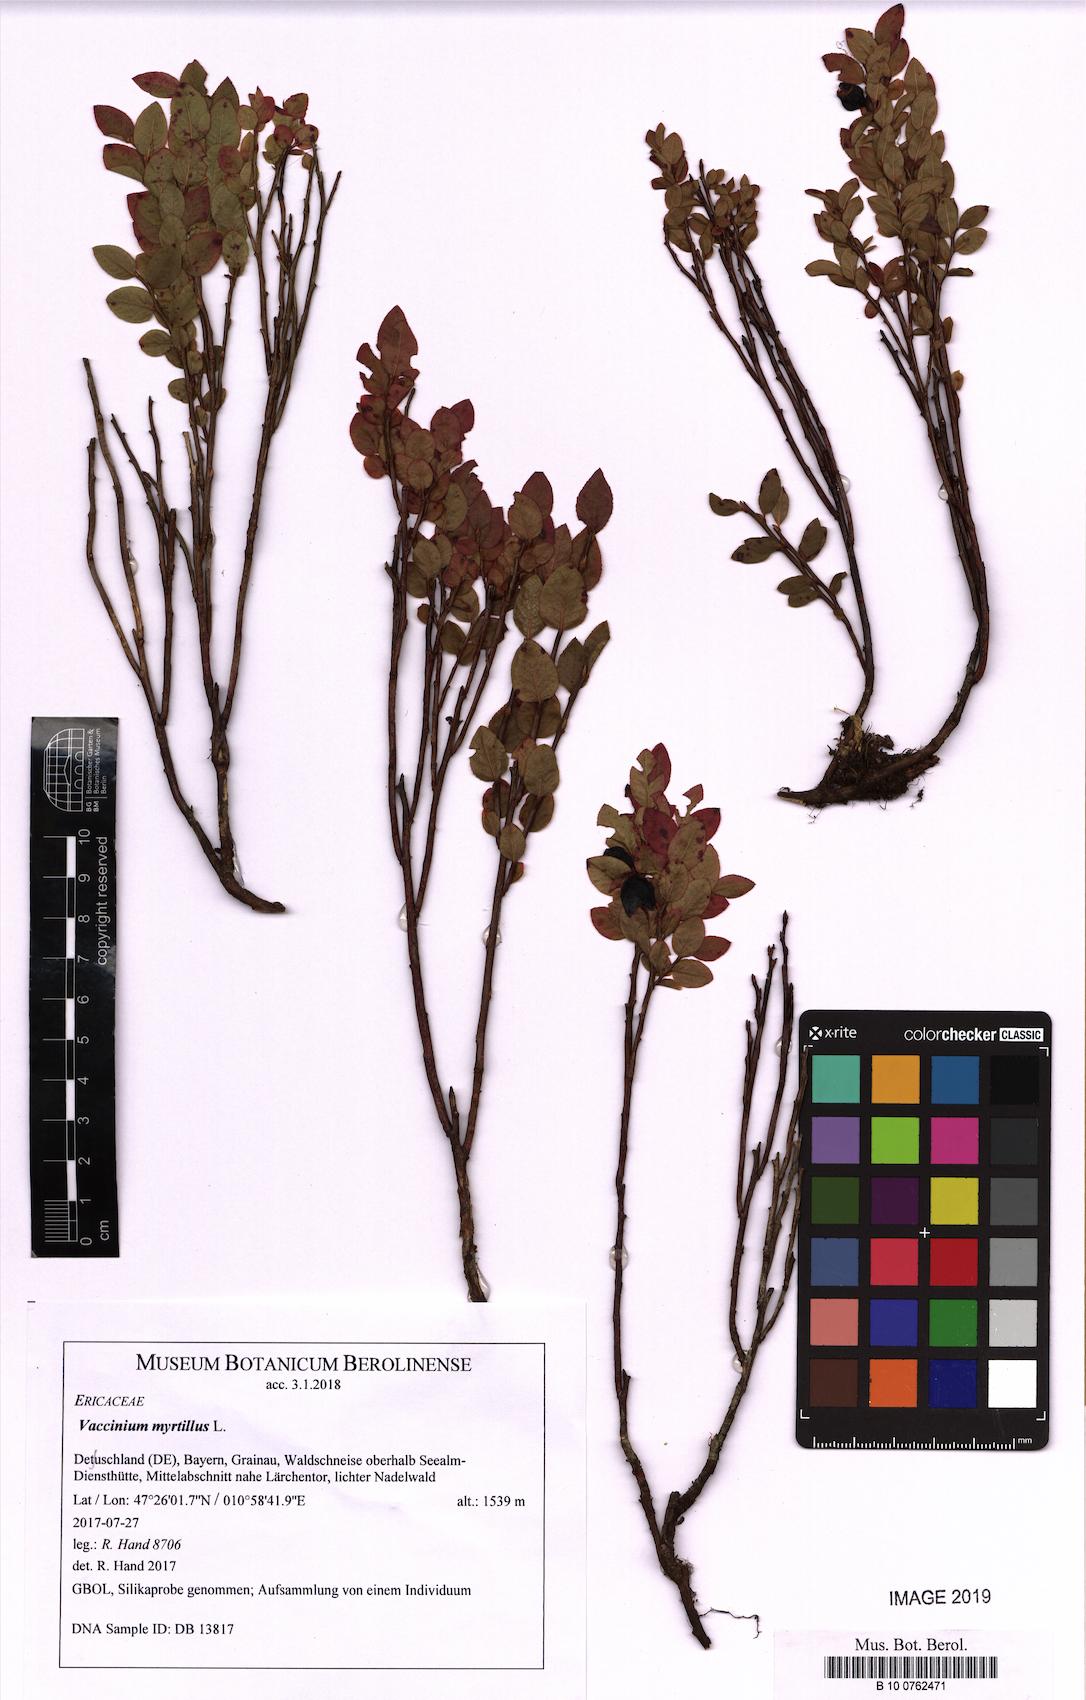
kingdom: Plantae
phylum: Tracheophyta
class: Magnoliopsida
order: Ericales
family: Ericaceae
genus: Vaccinium
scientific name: Vaccinium myrtillus
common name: Bilberry
